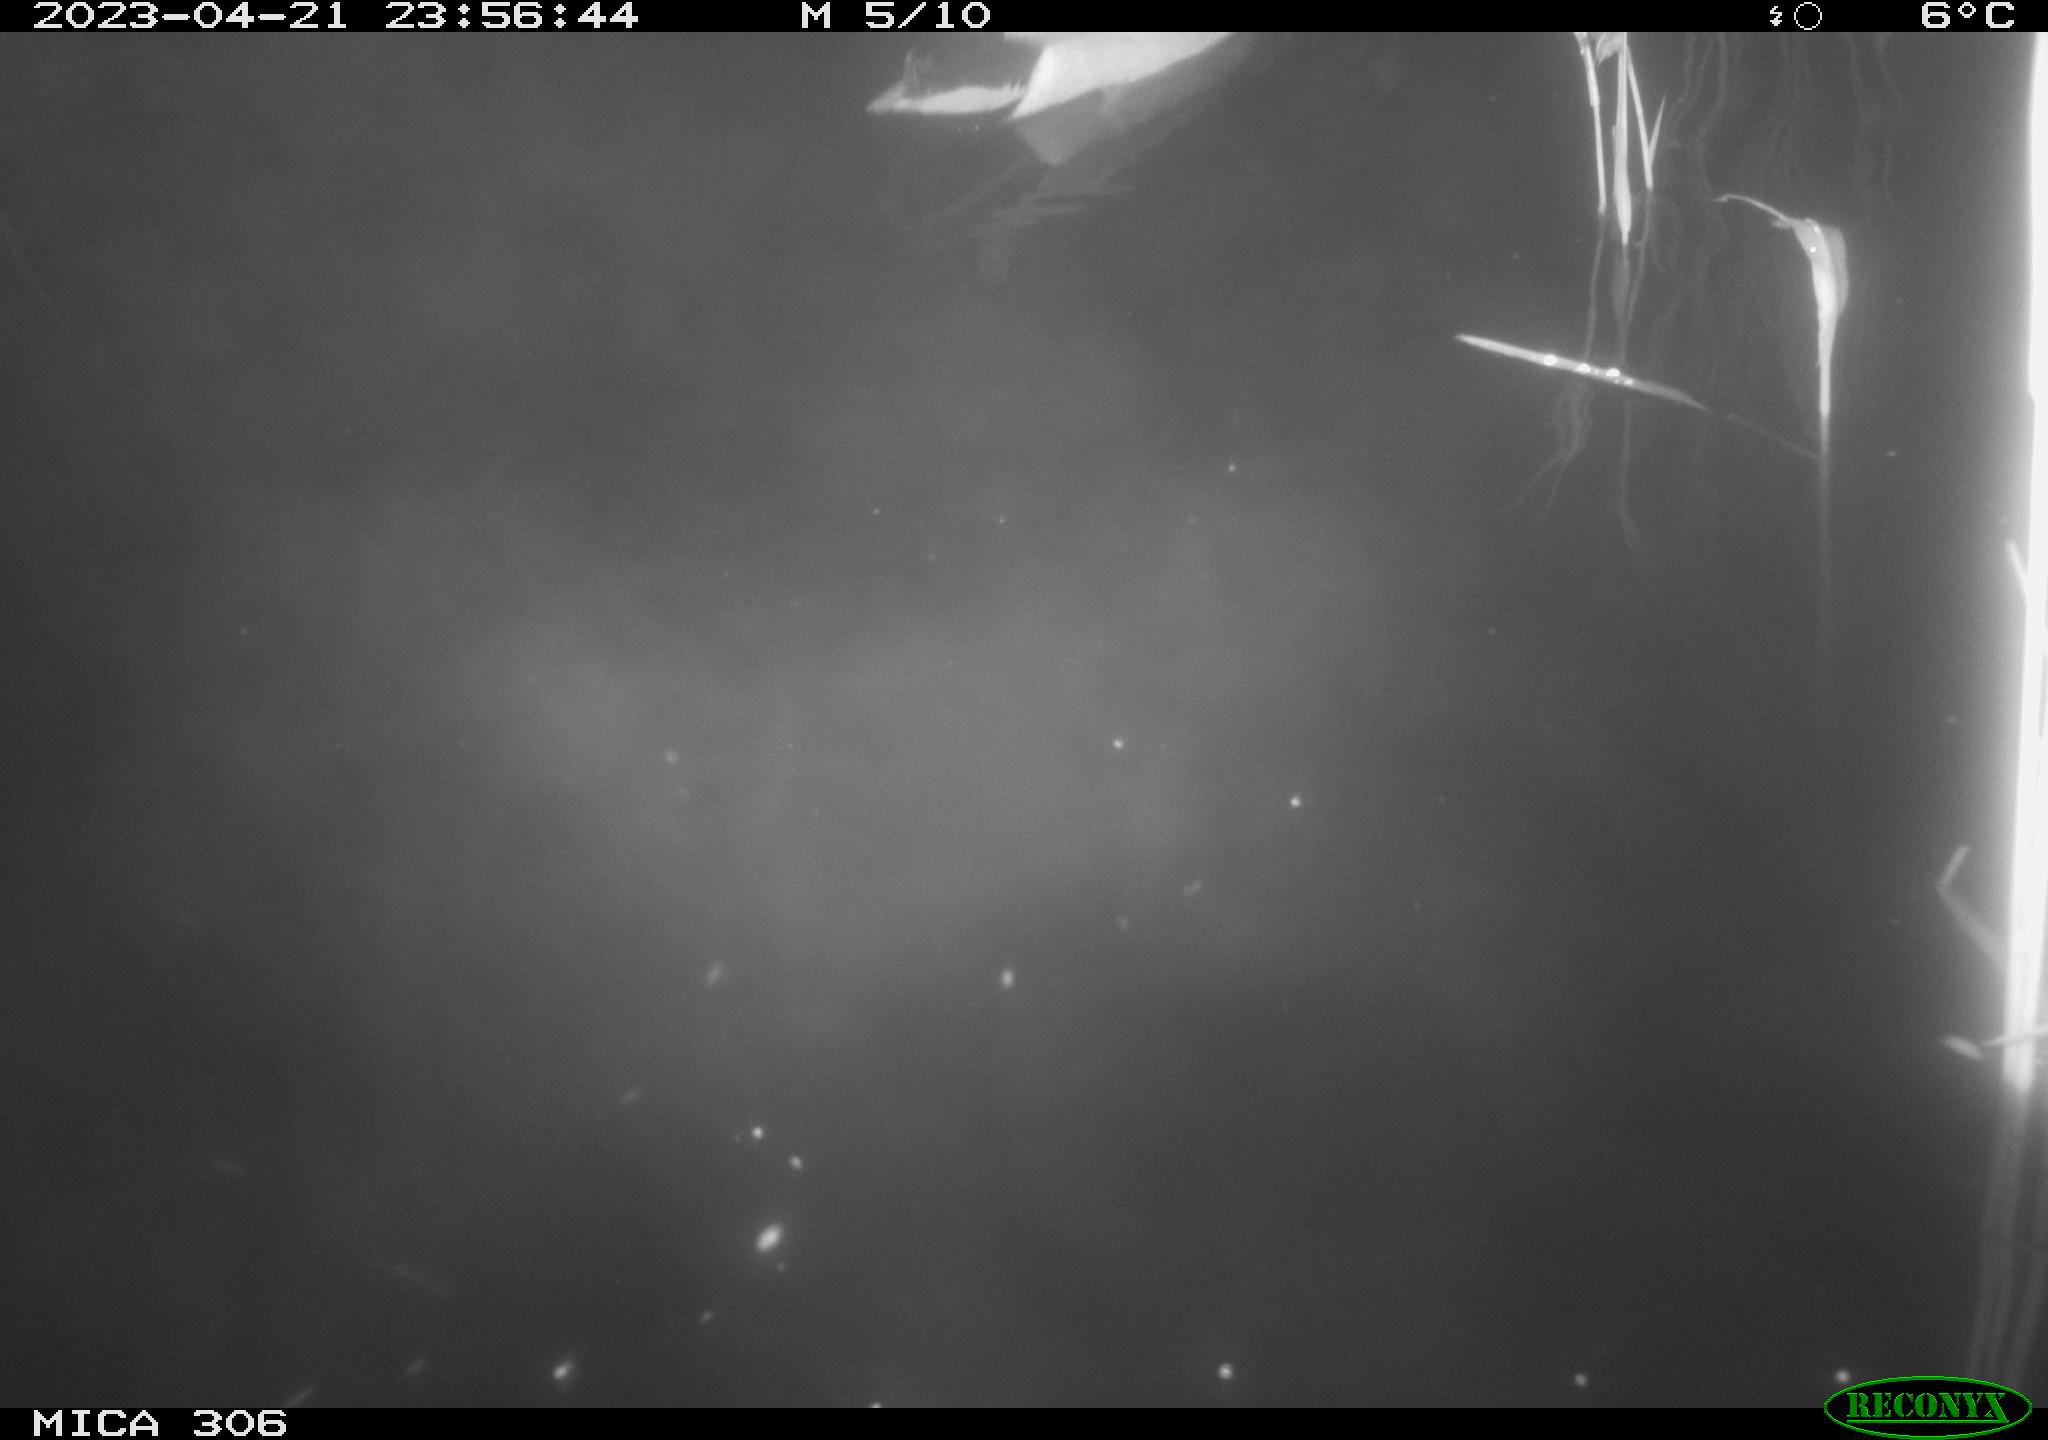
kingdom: Animalia
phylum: Chordata
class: Aves
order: Anseriformes
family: Anatidae
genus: Anas
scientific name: Anas
